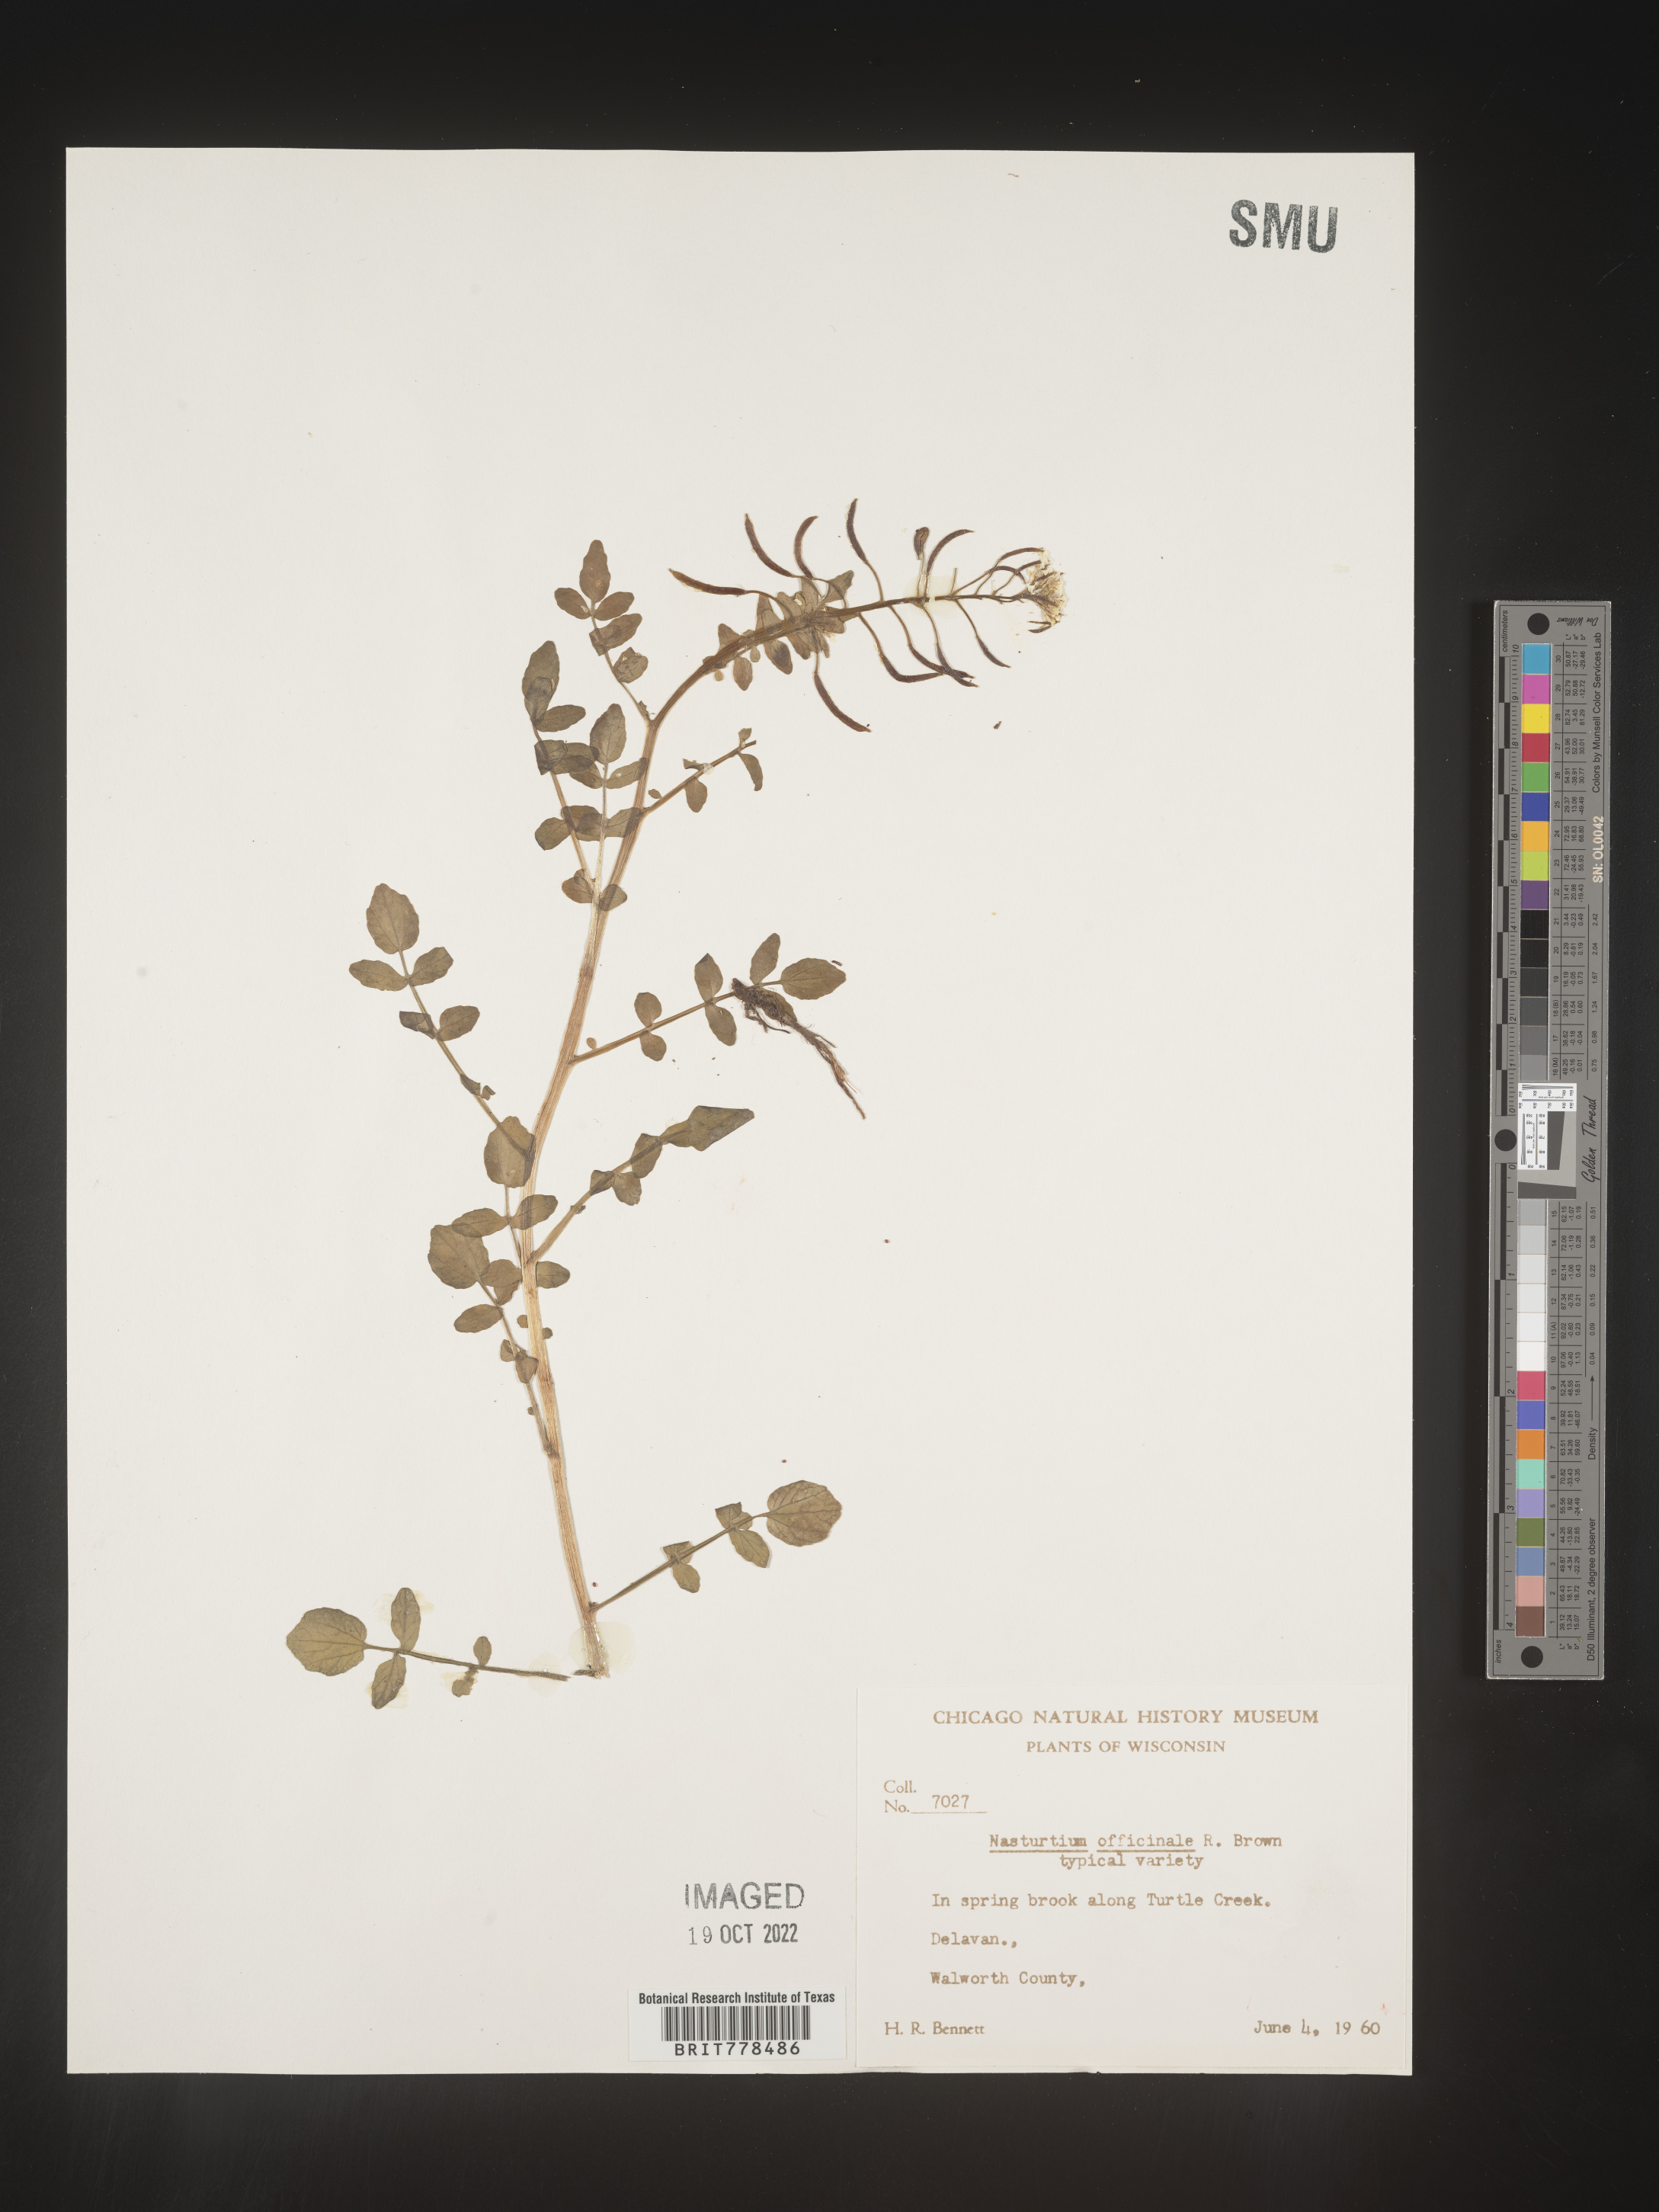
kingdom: Plantae
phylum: Tracheophyta
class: Magnoliopsida
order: Brassicales
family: Brassicaceae
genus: Nasturtium
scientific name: Nasturtium officinale
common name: Watercress
